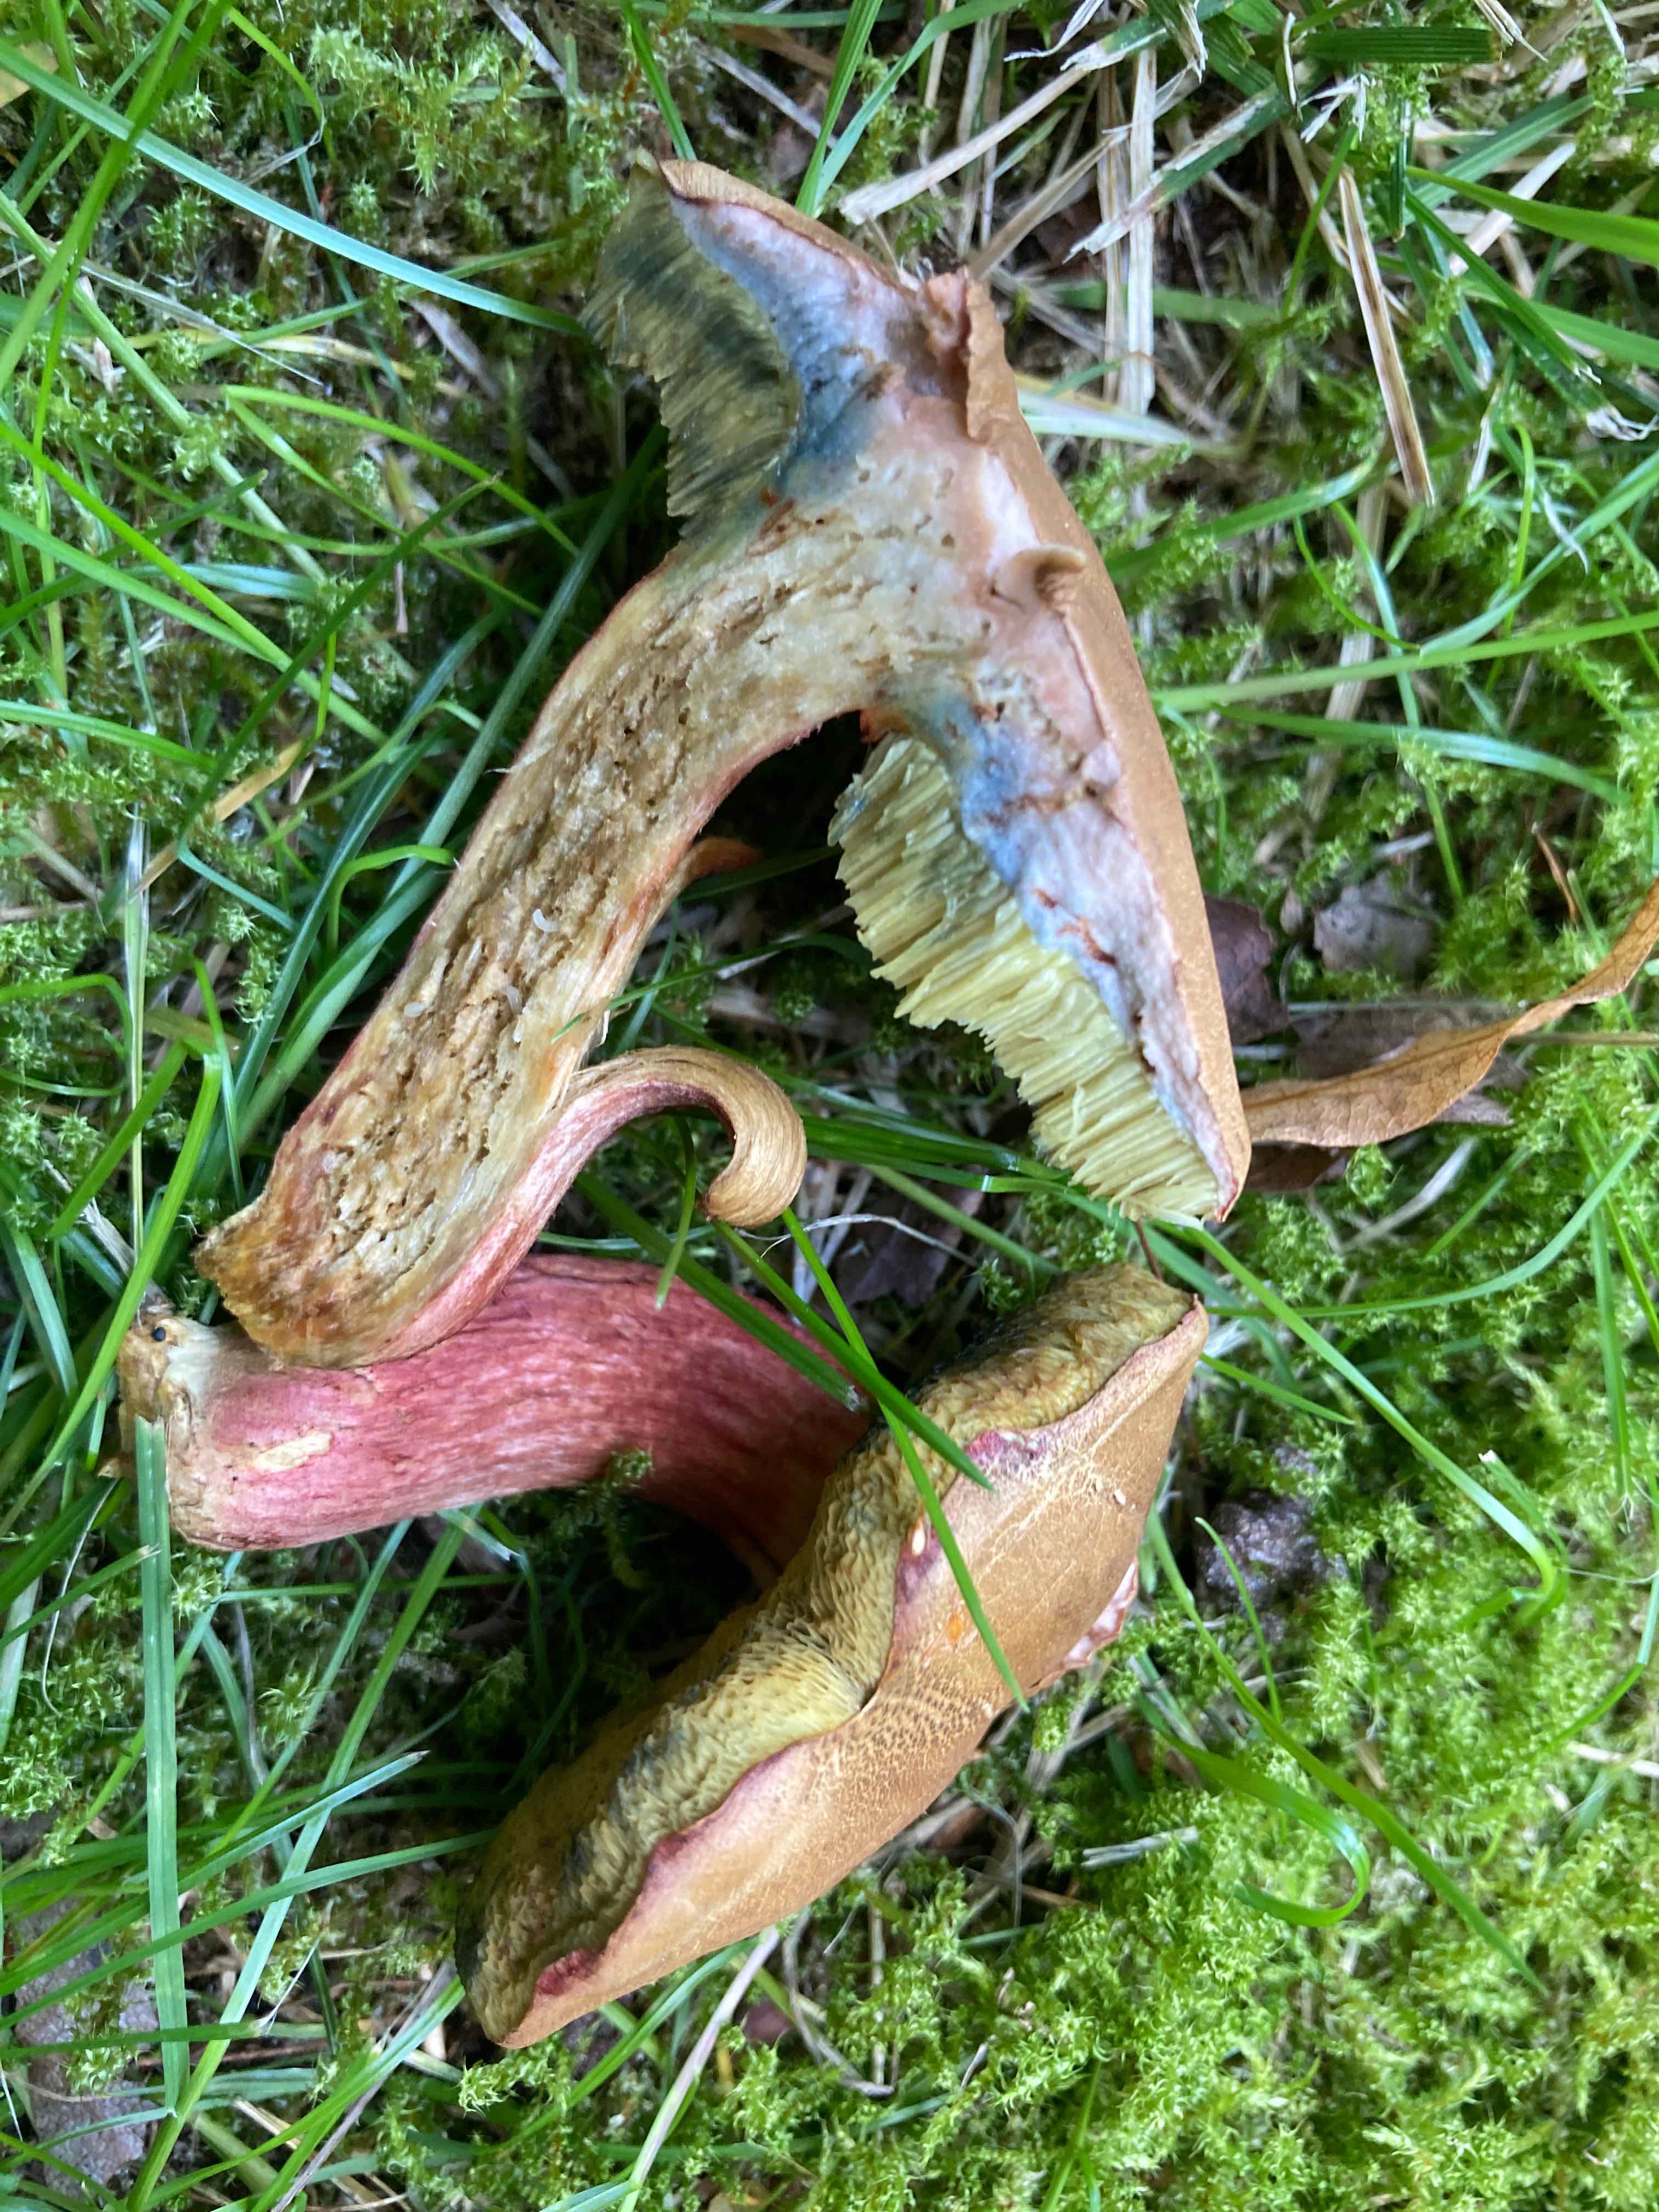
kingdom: Fungi
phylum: Basidiomycota
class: Agaricomycetes
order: Boletales
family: Boletaceae
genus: Hortiboletus
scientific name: Hortiboletus bubalinus
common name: aurora-rørhat
